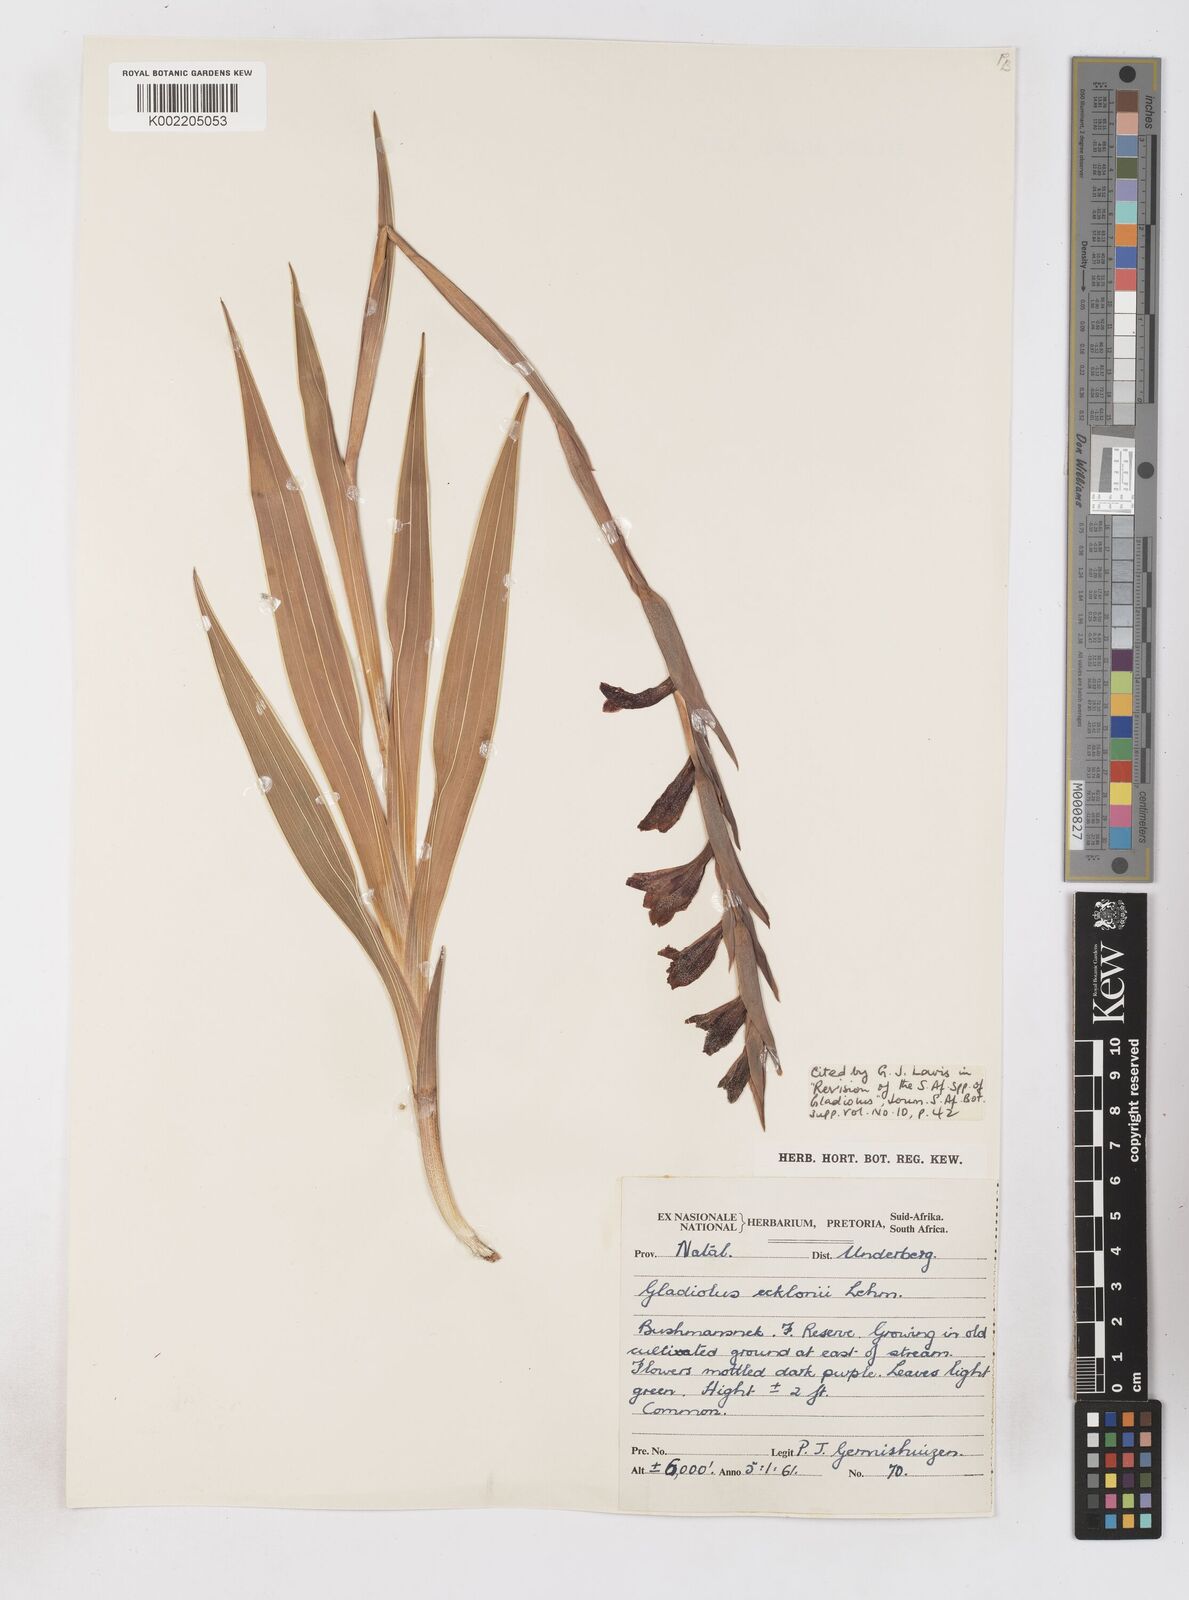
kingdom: Plantae
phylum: Tracheophyta
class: Liliopsida
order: Asparagales
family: Iridaceae
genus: Gladiolus
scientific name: Gladiolus ecklonii
